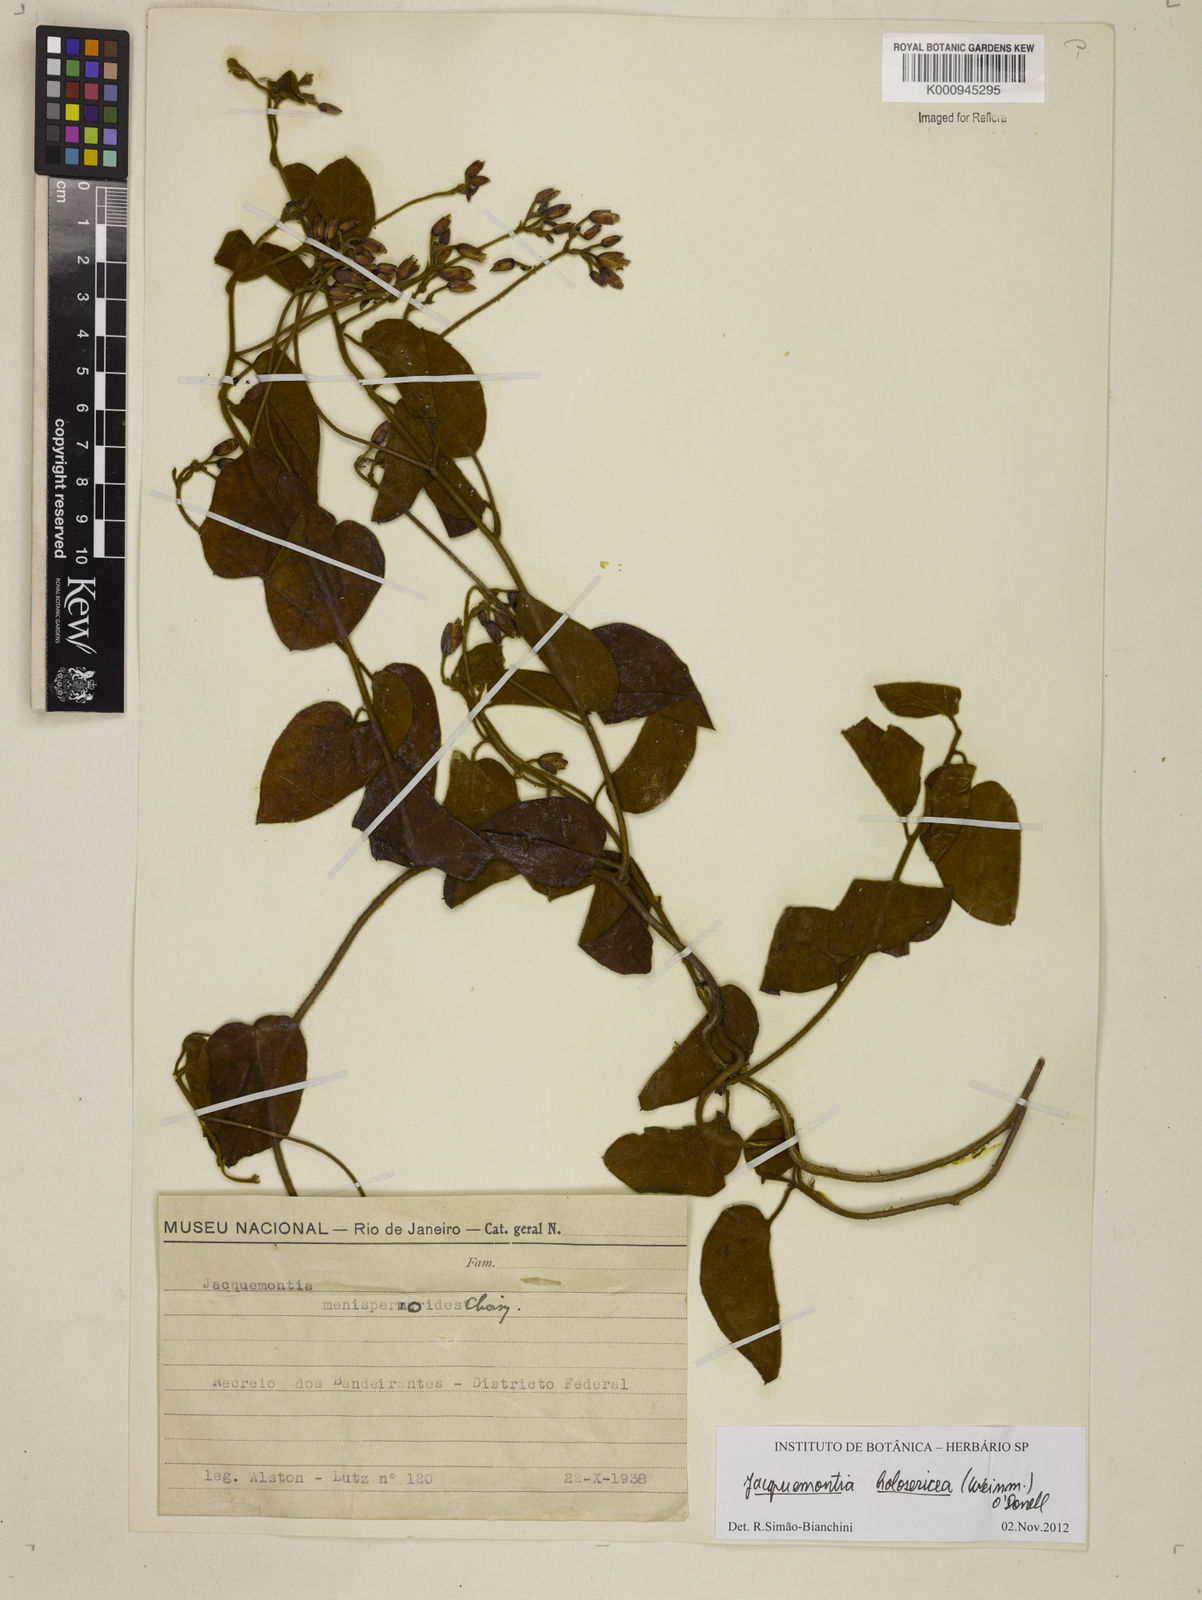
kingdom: Plantae
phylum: Tracheophyta
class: Magnoliopsida
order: Solanales
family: Convolvulaceae
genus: Jacquemontia
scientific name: Jacquemontia holosericea
